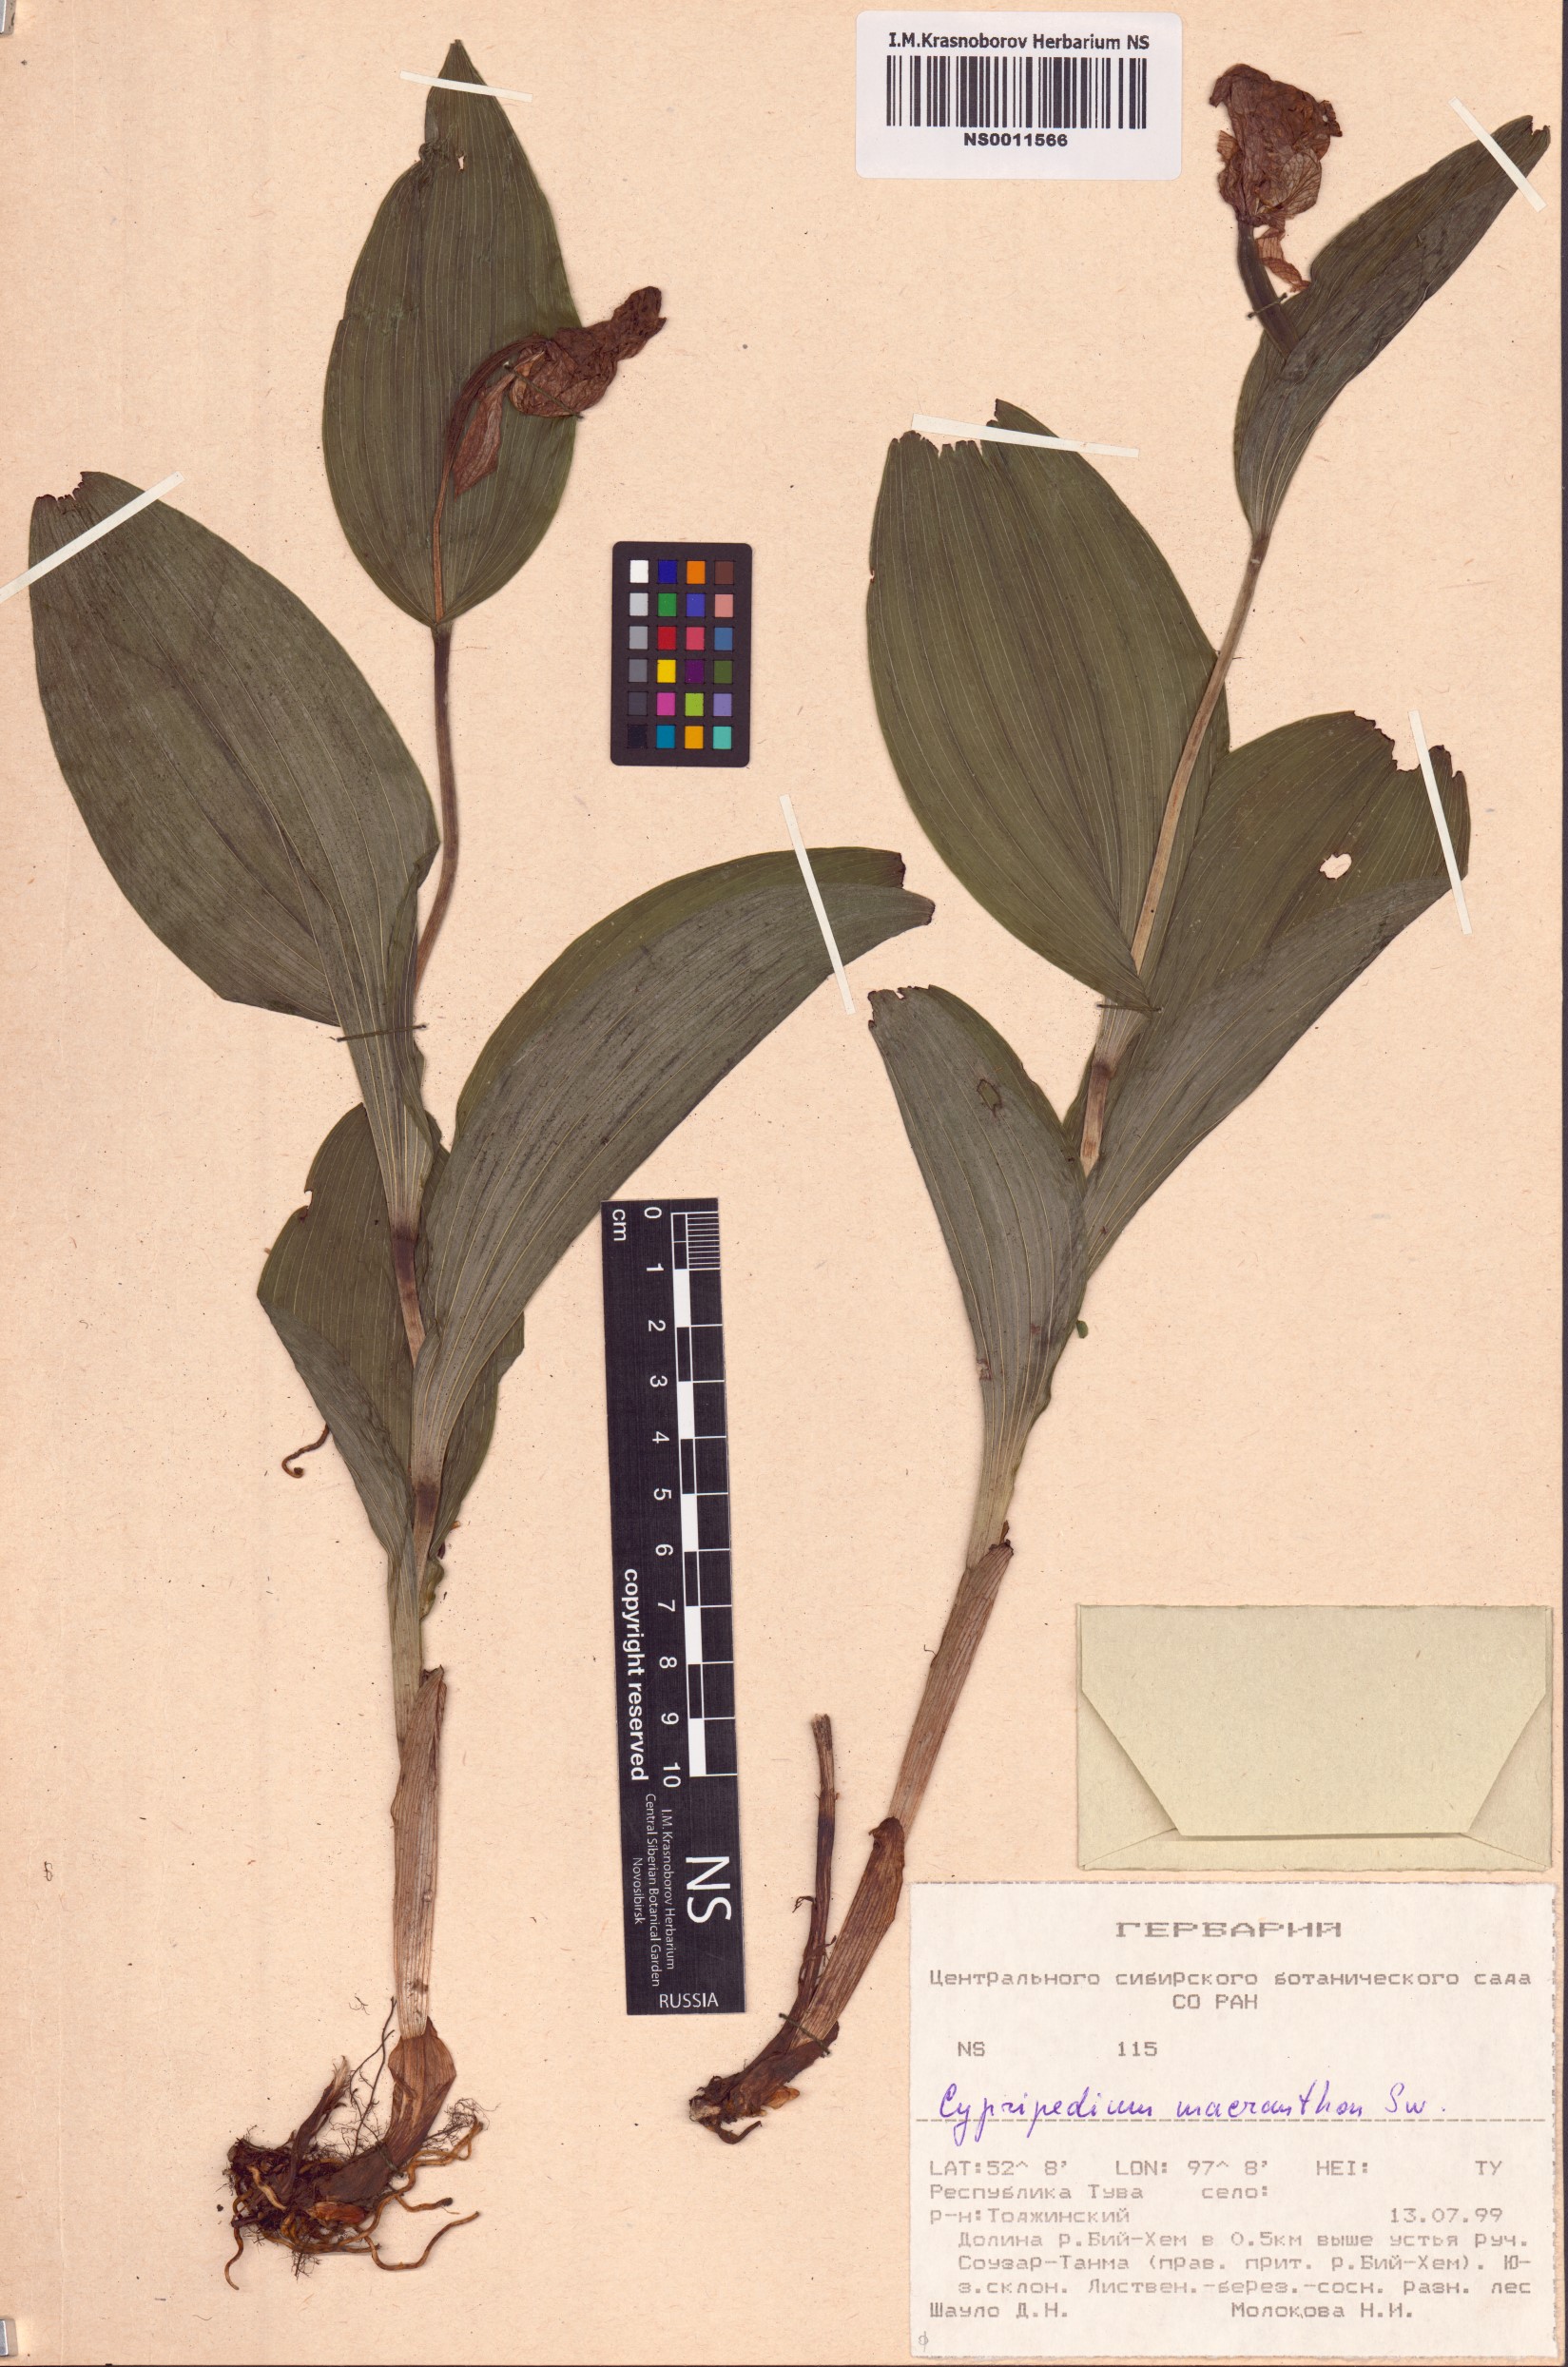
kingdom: Plantae
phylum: Tracheophyta
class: Liliopsida
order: Asparagales
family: Orchidaceae
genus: Cypripedium
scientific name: Cypripedium macranthos
